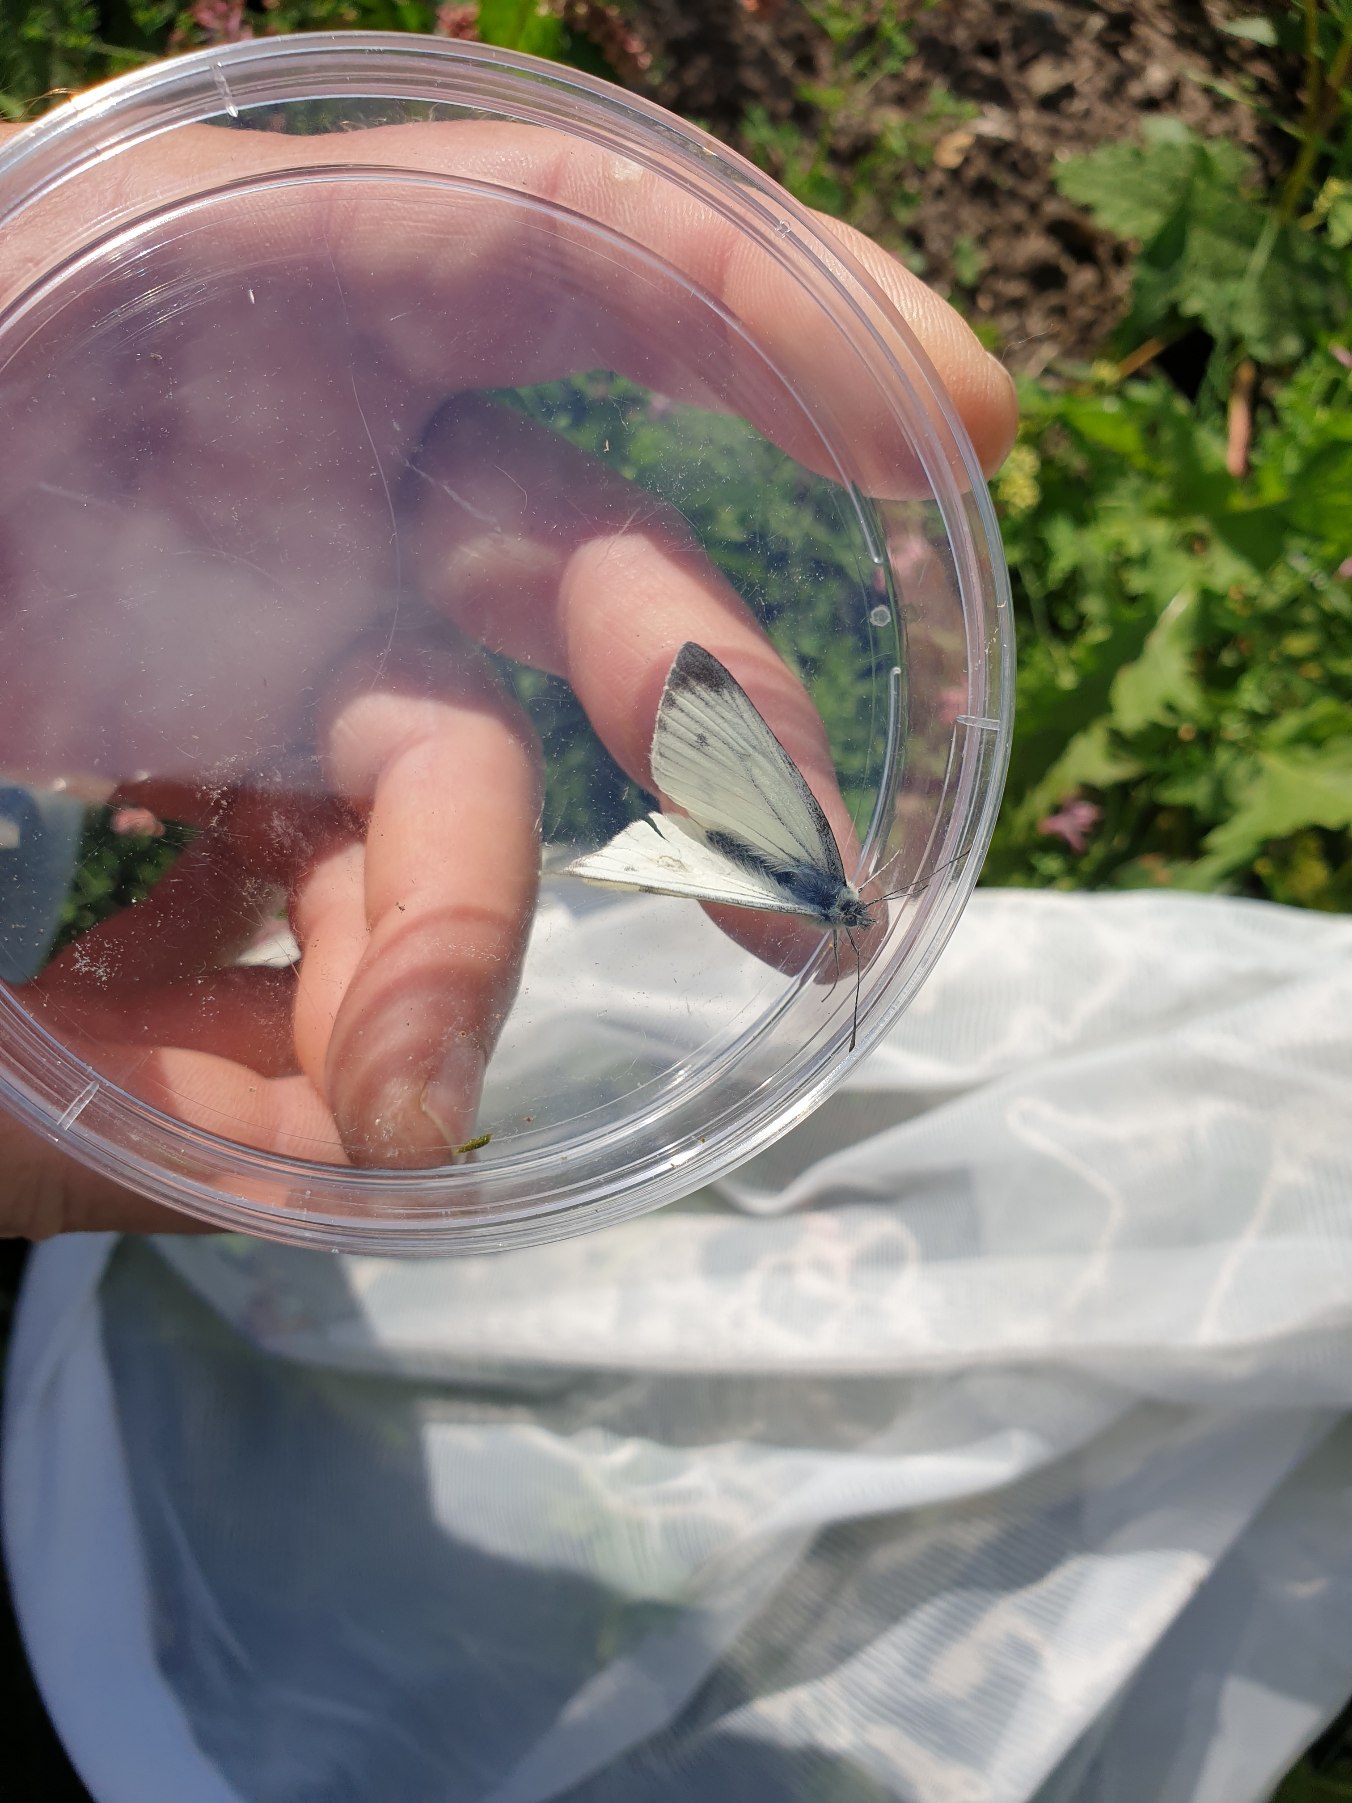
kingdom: Animalia
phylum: Arthropoda
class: Insecta
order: Lepidoptera
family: Pieridae
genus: Pieris
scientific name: Pieris napi
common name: Grønåret kålsommerfugl
